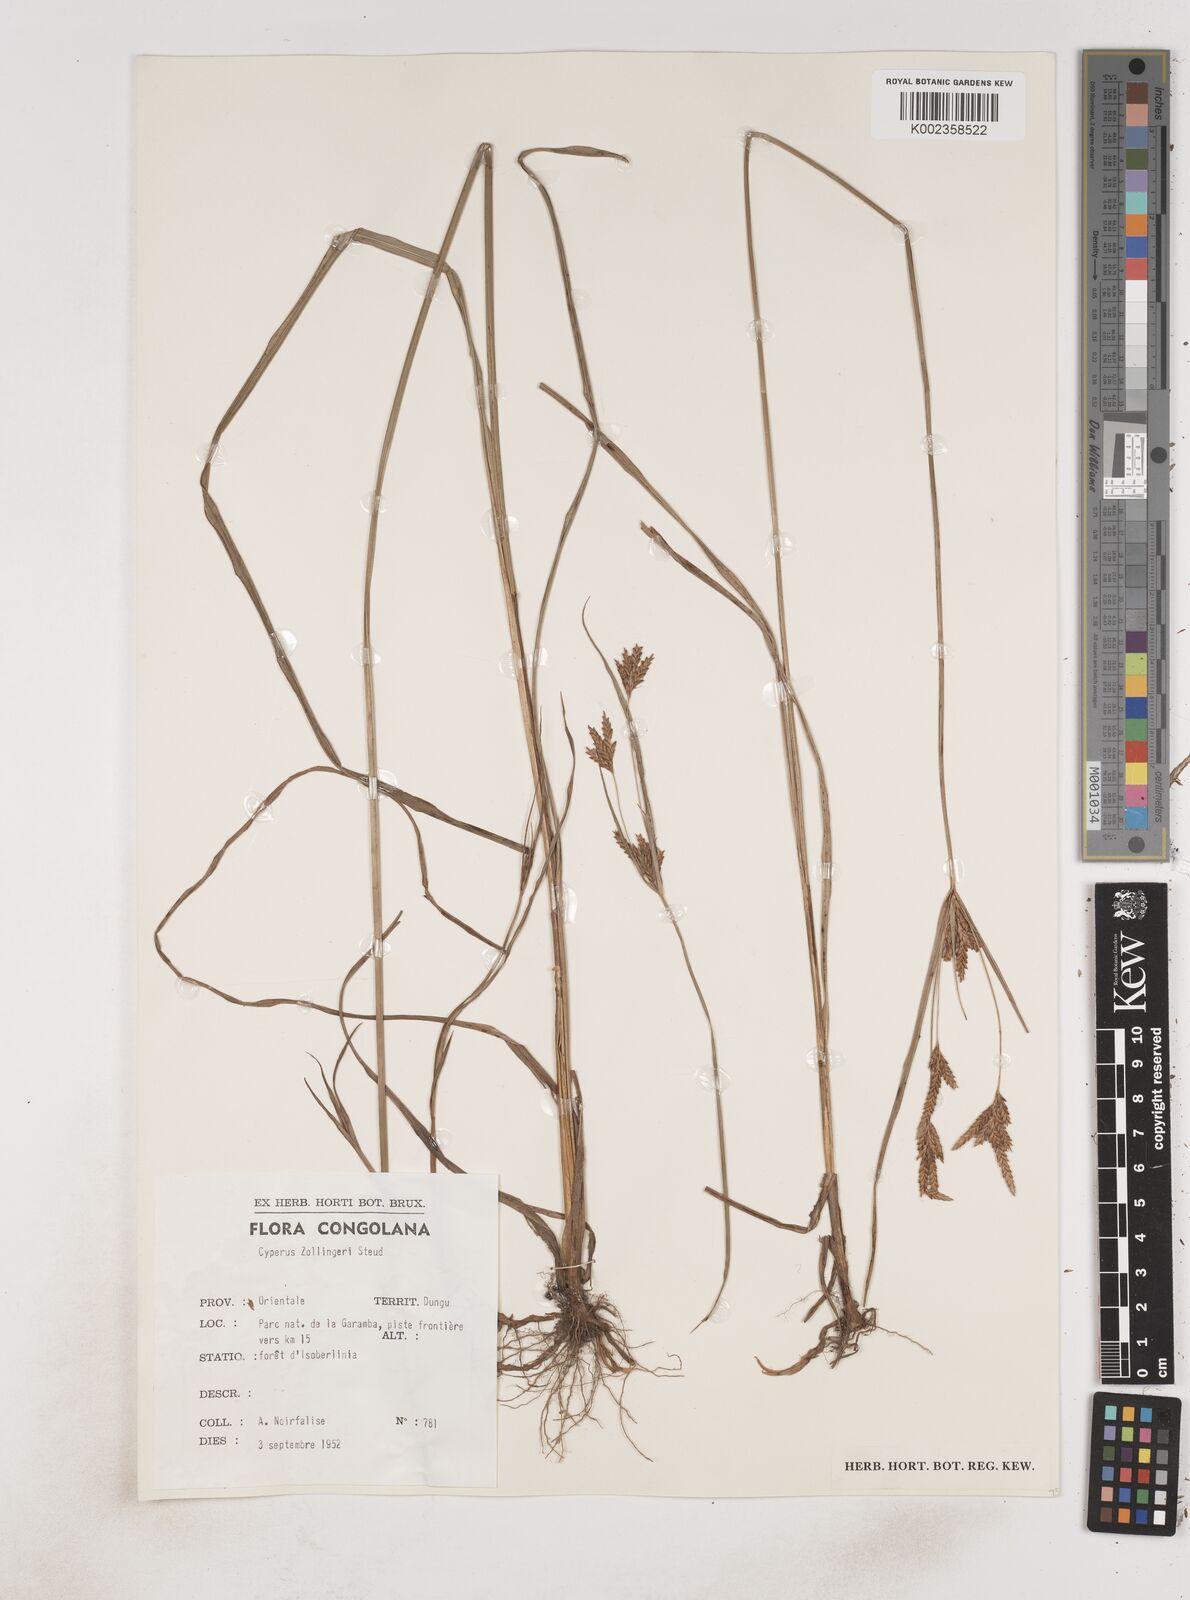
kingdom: Plantae
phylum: Tracheophyta
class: Liliopsida
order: Poales
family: Cyperaceae
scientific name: Cyperaceae
